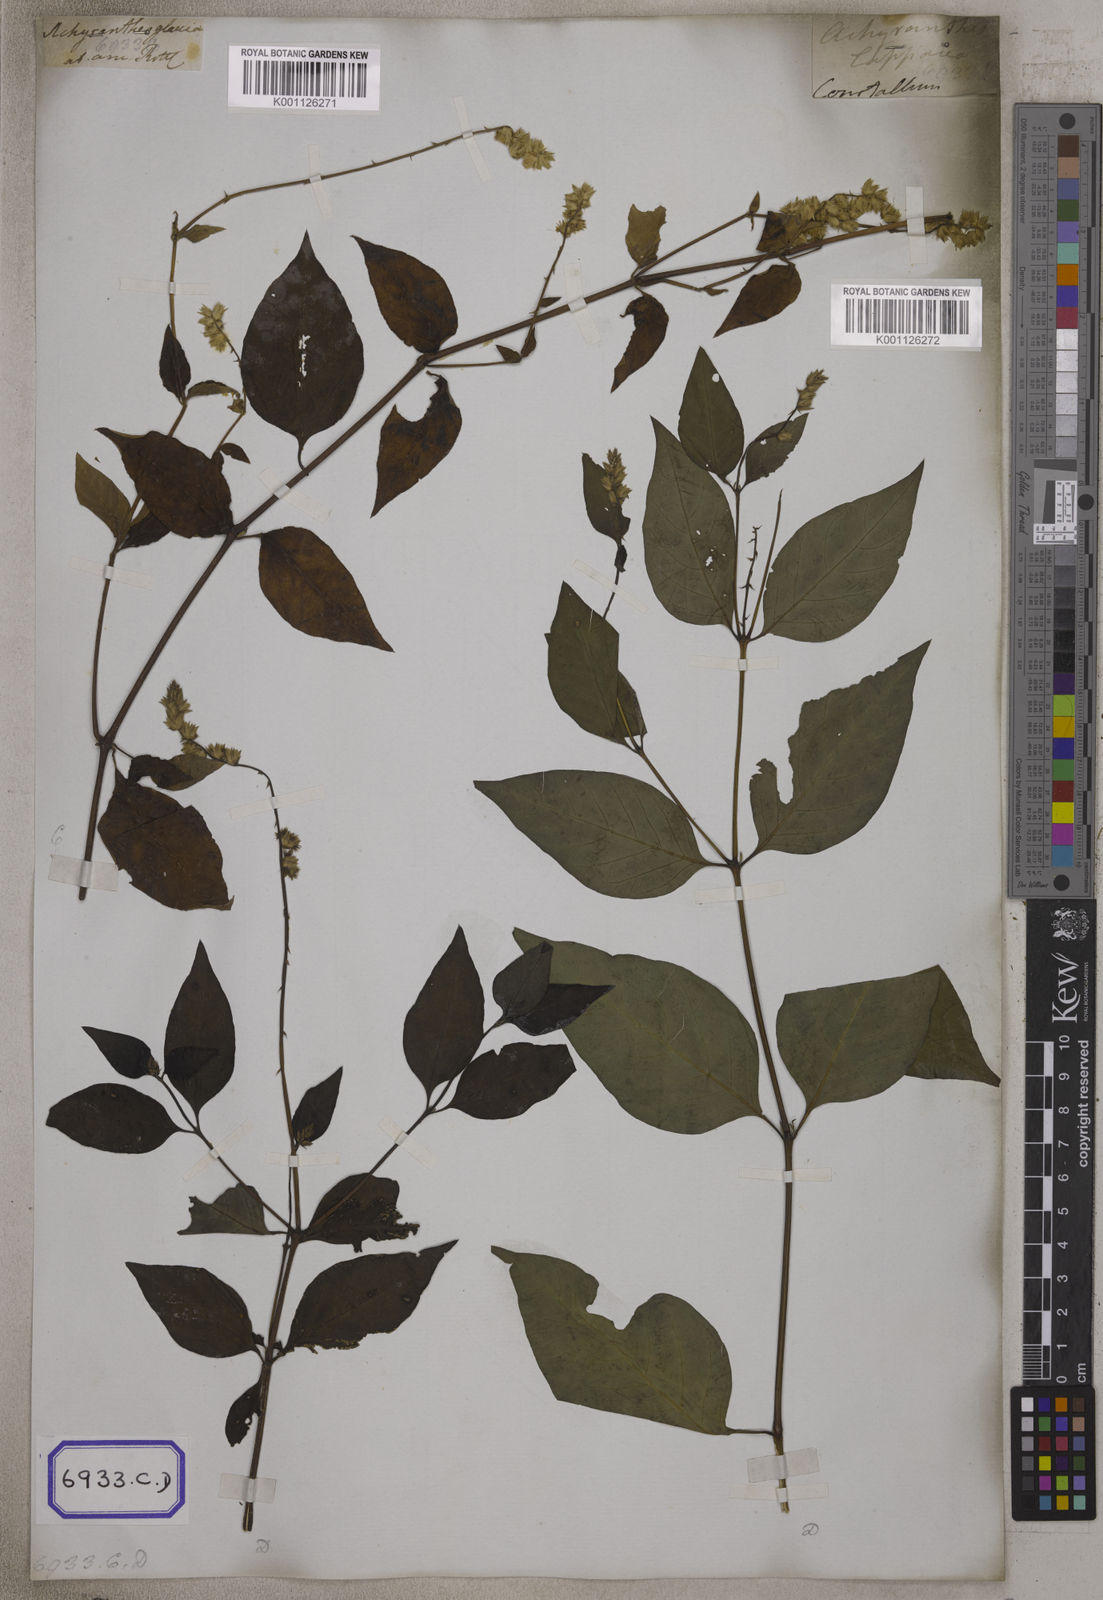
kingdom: Plantae
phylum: Tracheophyta
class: Magnoliopsida
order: Caryophyllales
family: Amaranthaceae
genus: Pupalia
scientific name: Pupalia lappacea
